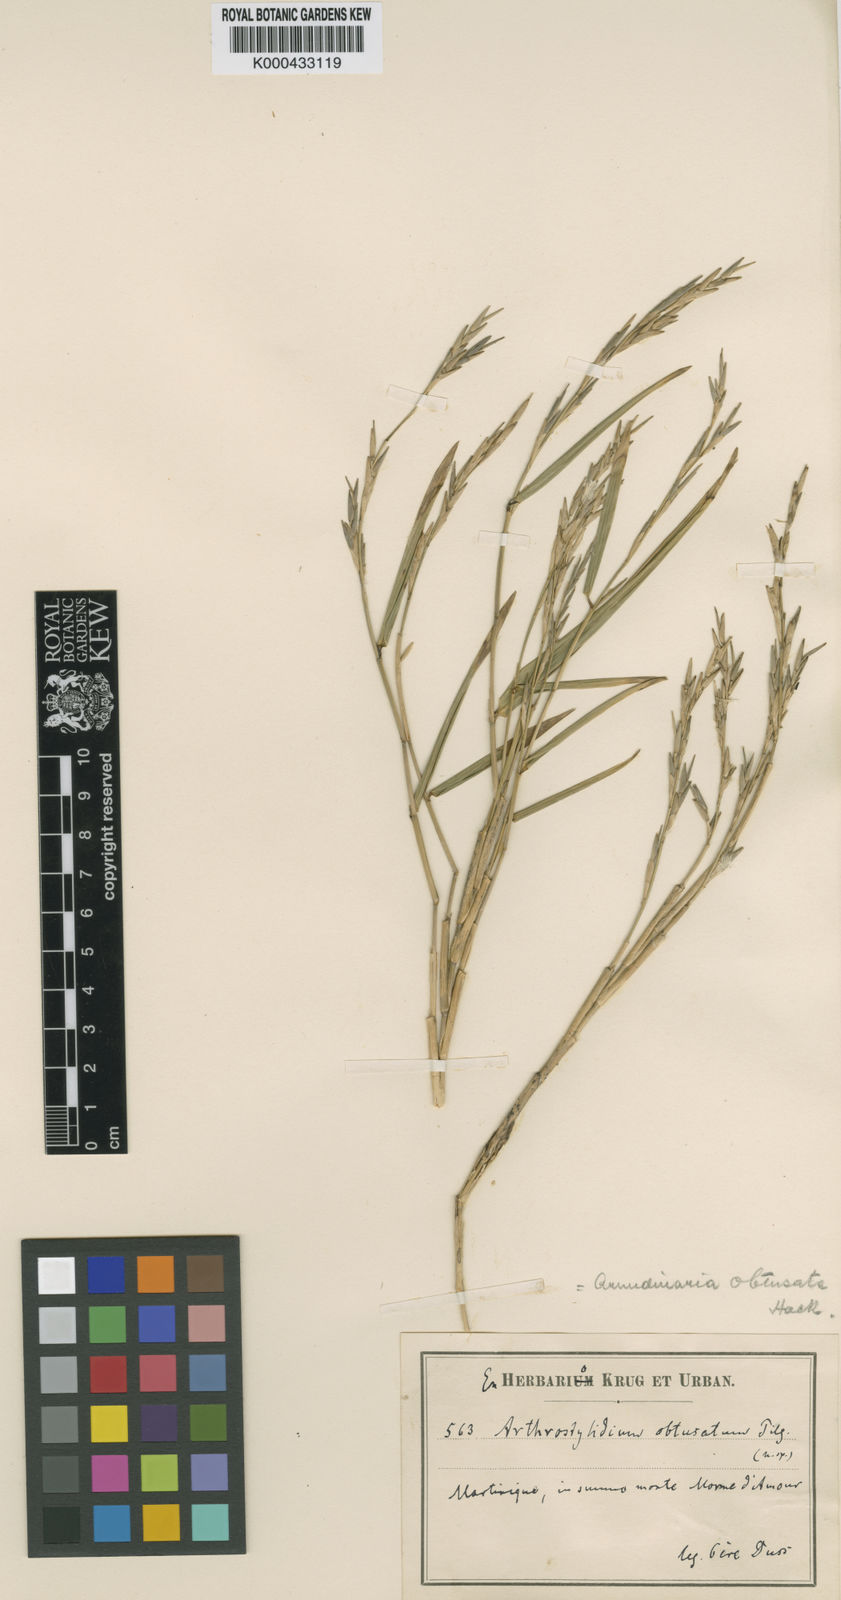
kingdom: Plantae
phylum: Tracheophyta
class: Liliopsida
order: Poales
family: Poaceae
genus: Arthrostylidium
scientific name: Arthrostylidium obtusatum
